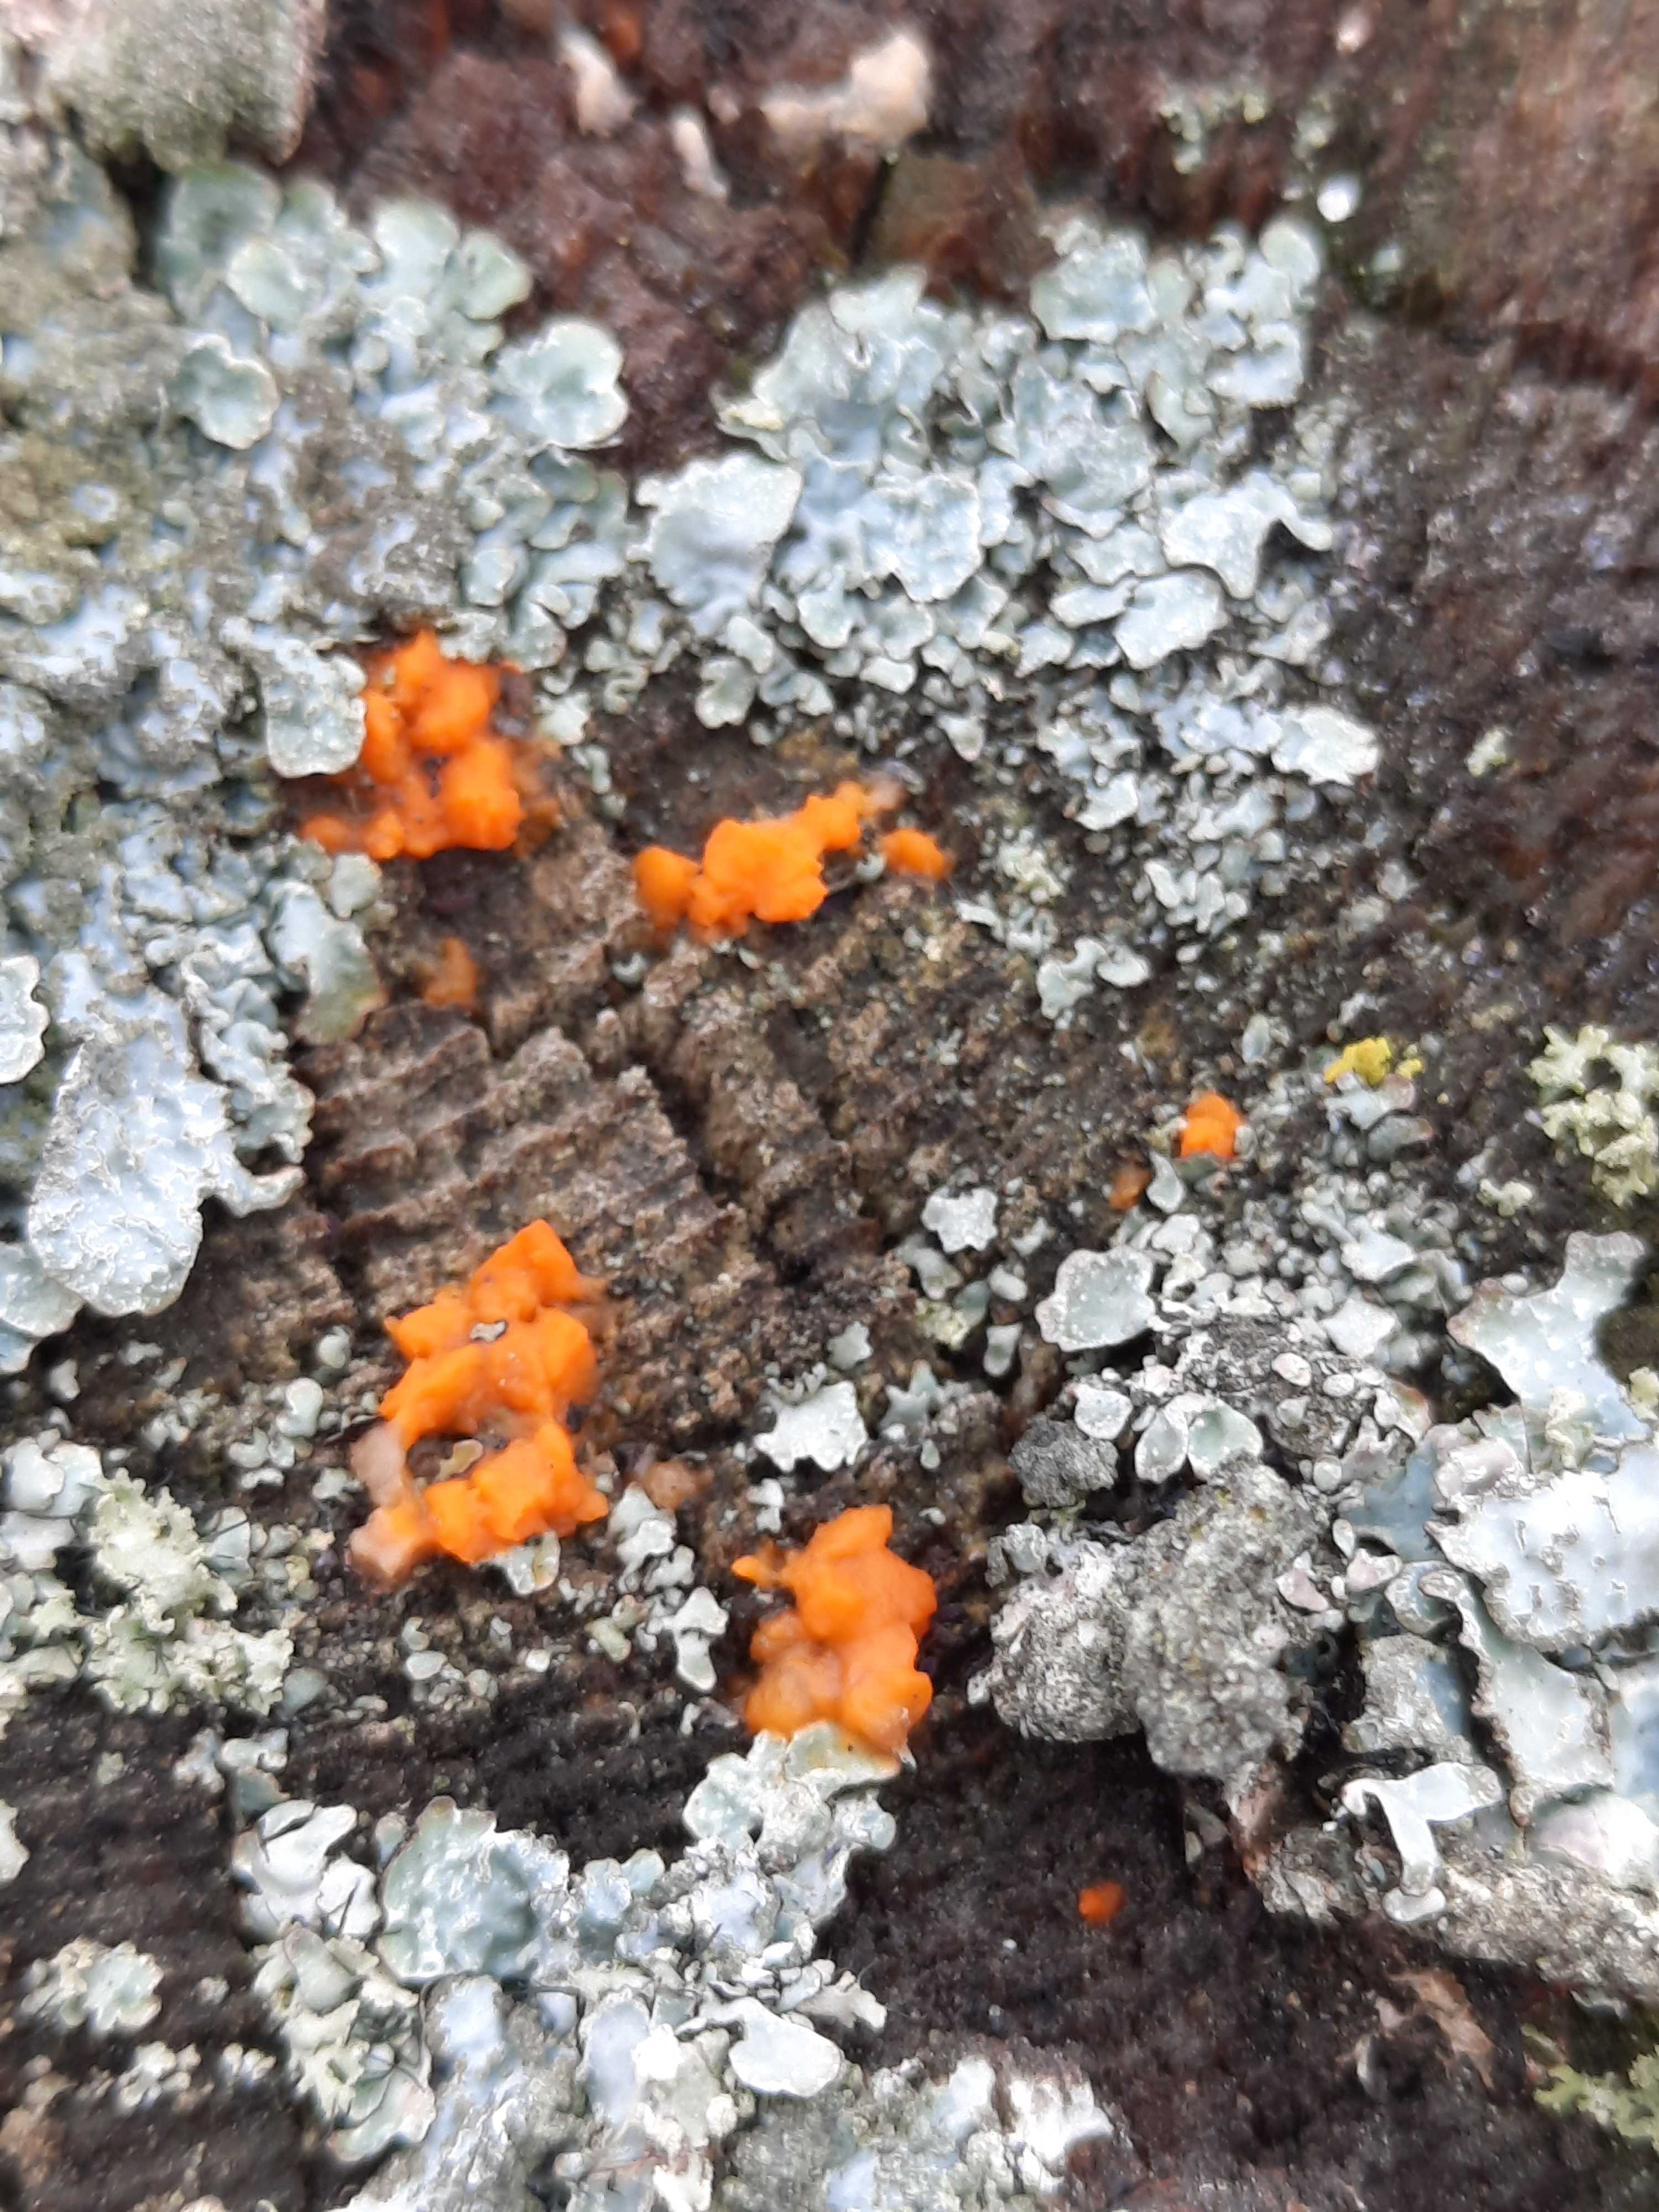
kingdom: Fungi
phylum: Basidiomycota
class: Dacrymycetes
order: Dacrymycetales
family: Dacrymycetaceae
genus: Dacrymyces
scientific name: Dacrymyces stillatus
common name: almindelig tåresvamp
